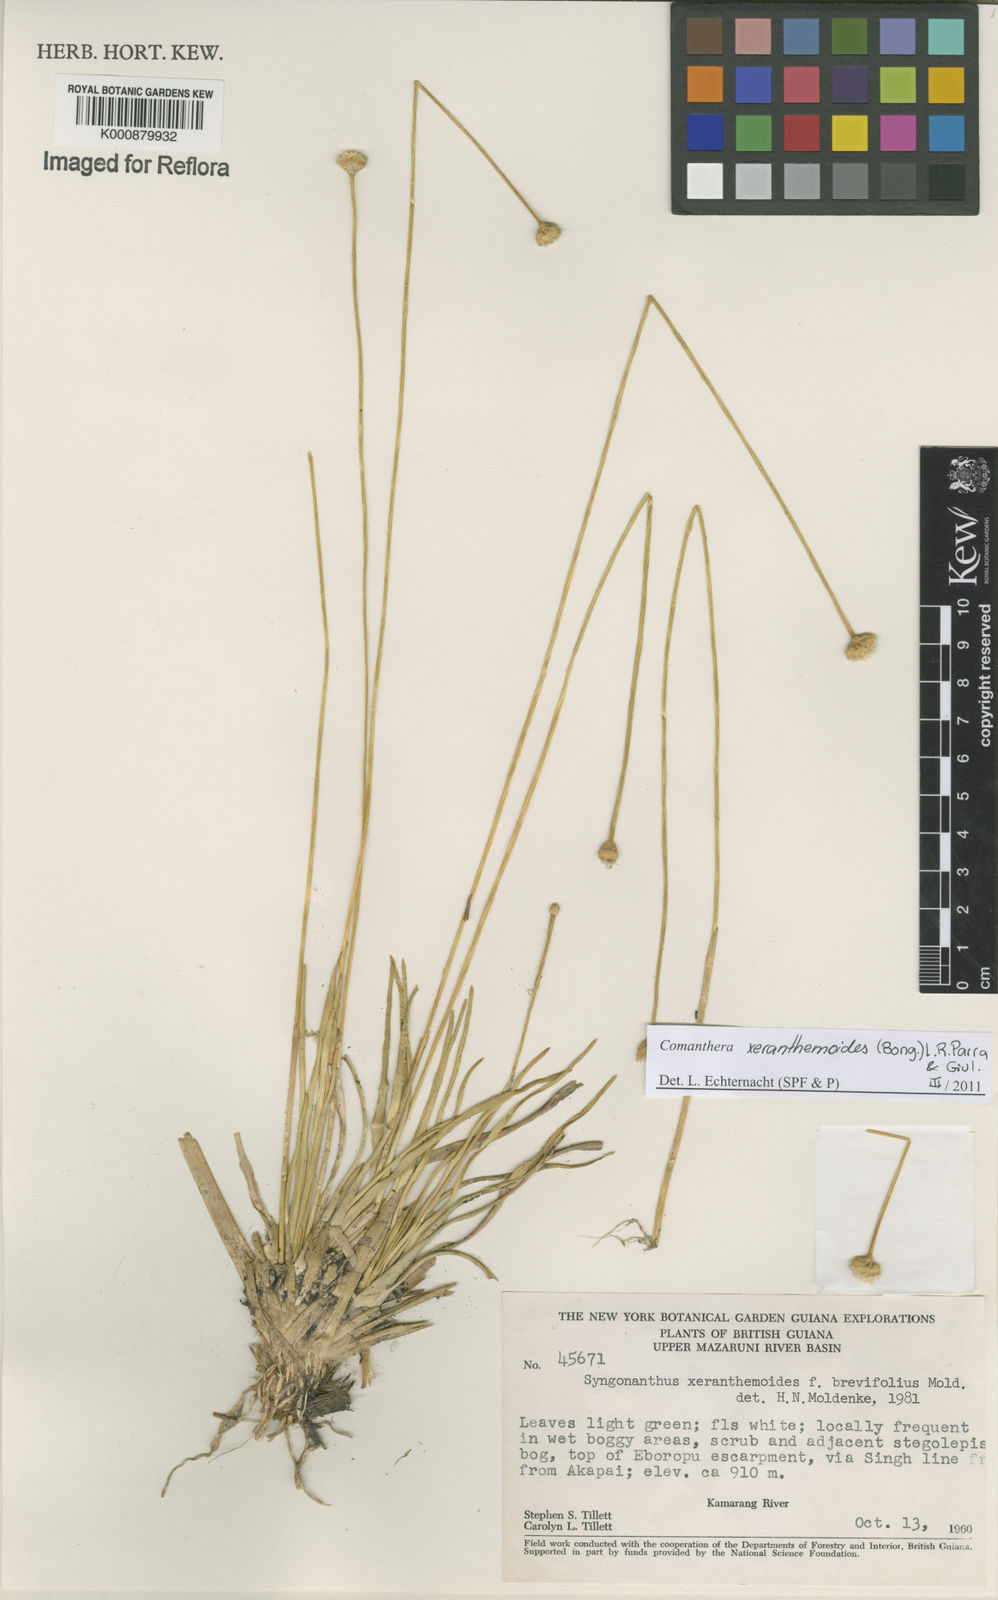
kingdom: Plantae
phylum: Tracheophyta
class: Liliopsida
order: Poales
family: Eriocaulaceae
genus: Comanthera
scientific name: Comanthera xeranthemoides
